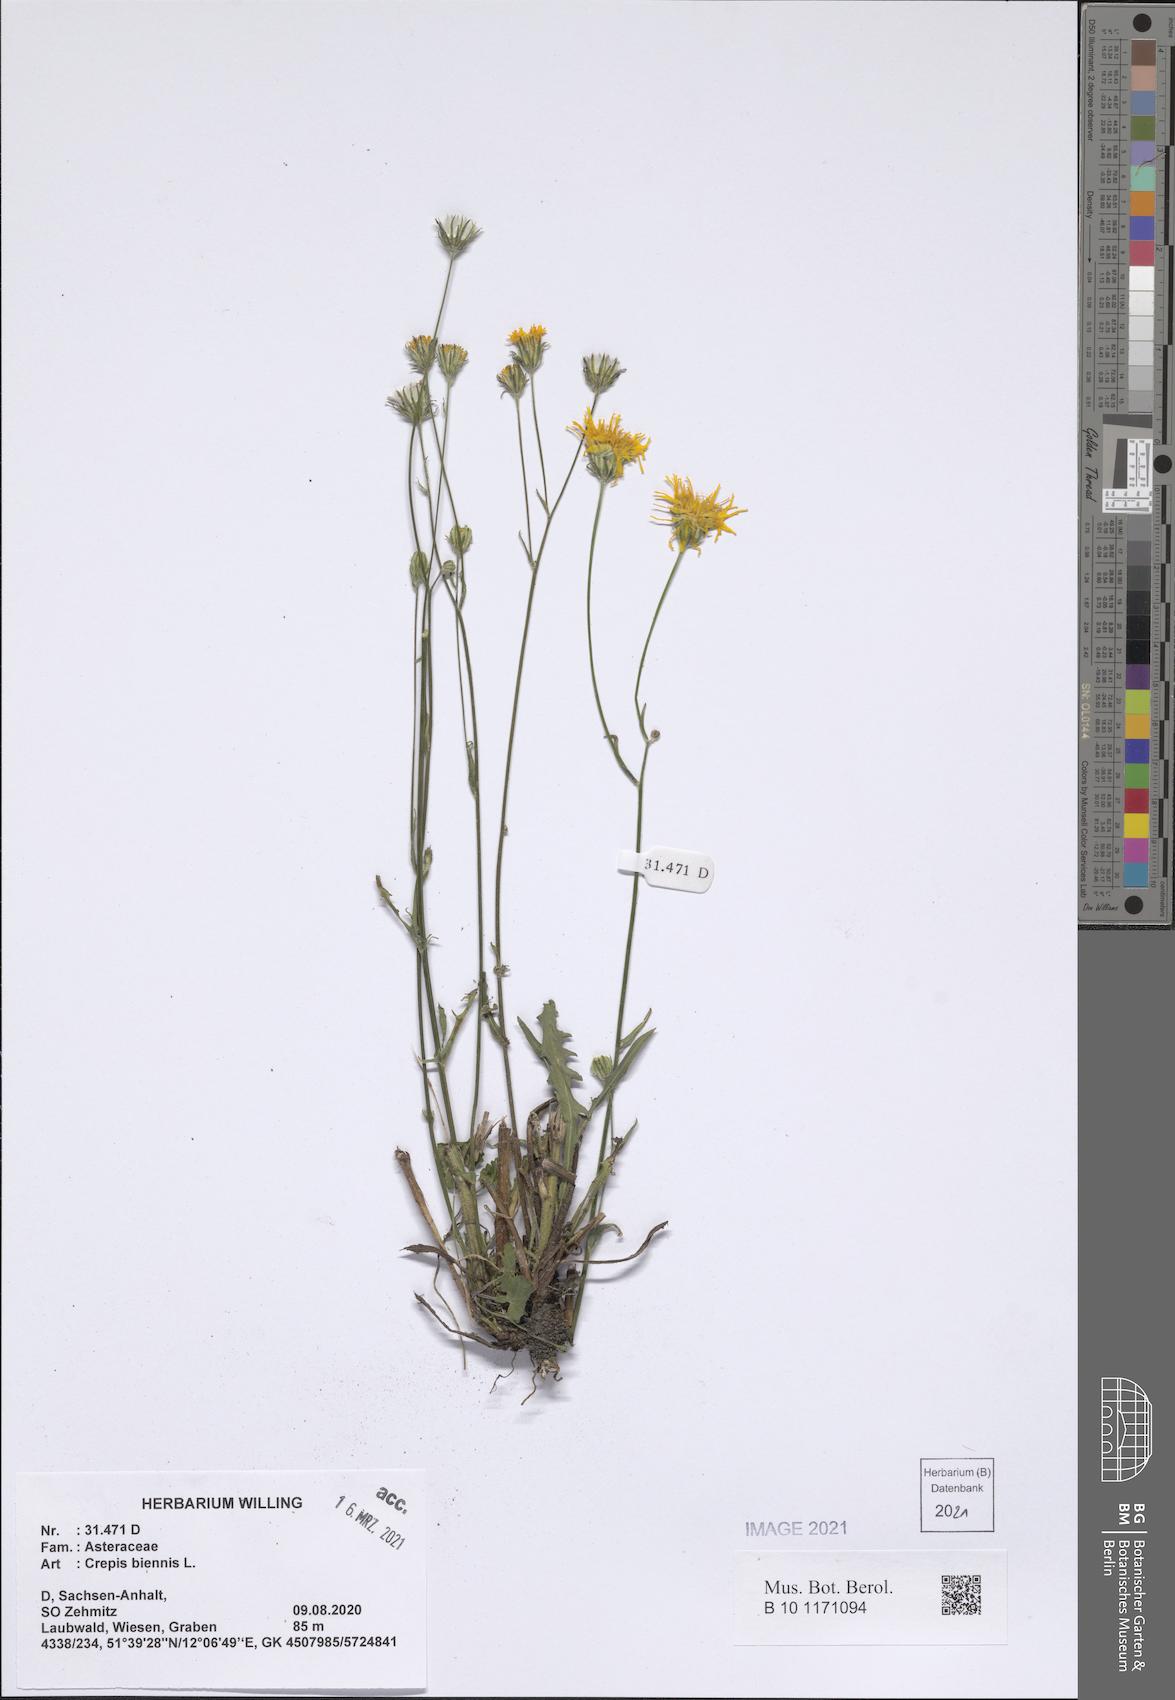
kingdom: Plantae
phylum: Tracheophyta
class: Magnoliopsida
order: Asterales
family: Asteraceae
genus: Crepis
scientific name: Crepis biennis
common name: Rough hawk's-beard
